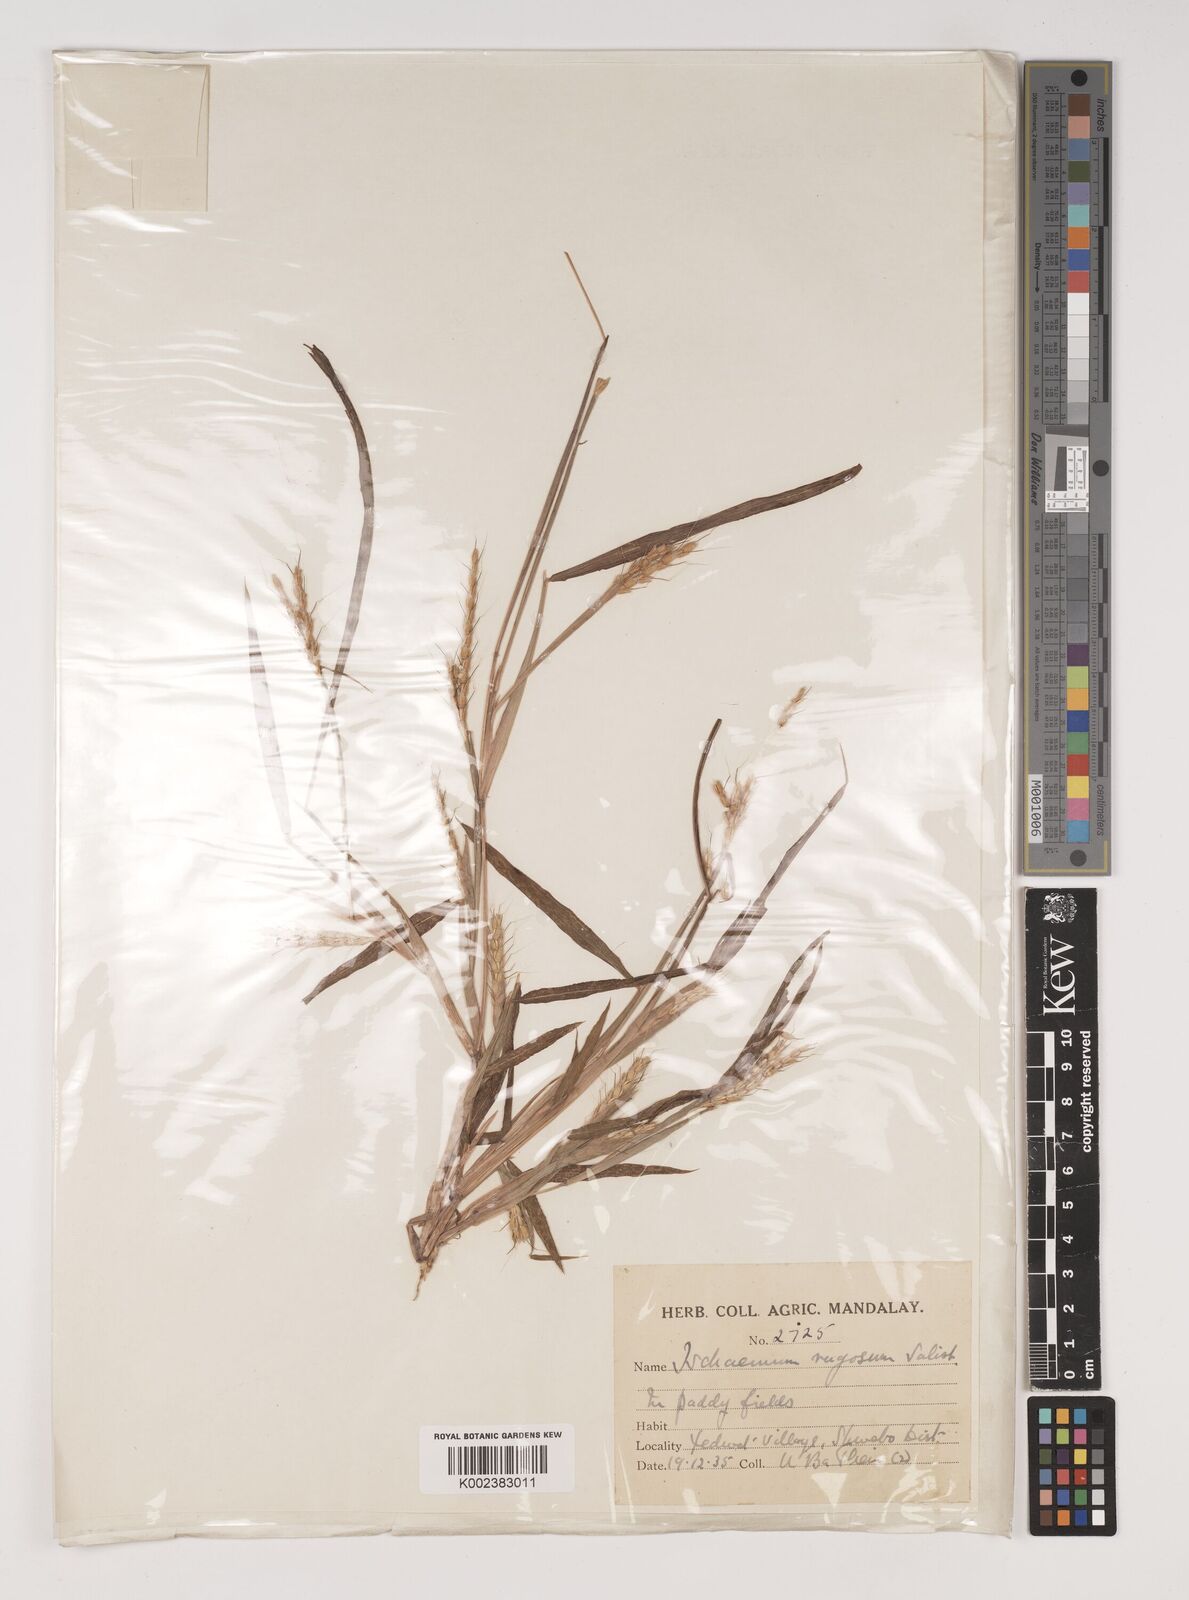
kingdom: Plantae
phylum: Tracheophyta
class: Liliopsida
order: Poales
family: Poaceae
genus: Ischaemum
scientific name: Ischaemum rugosum
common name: Saramatta grass
